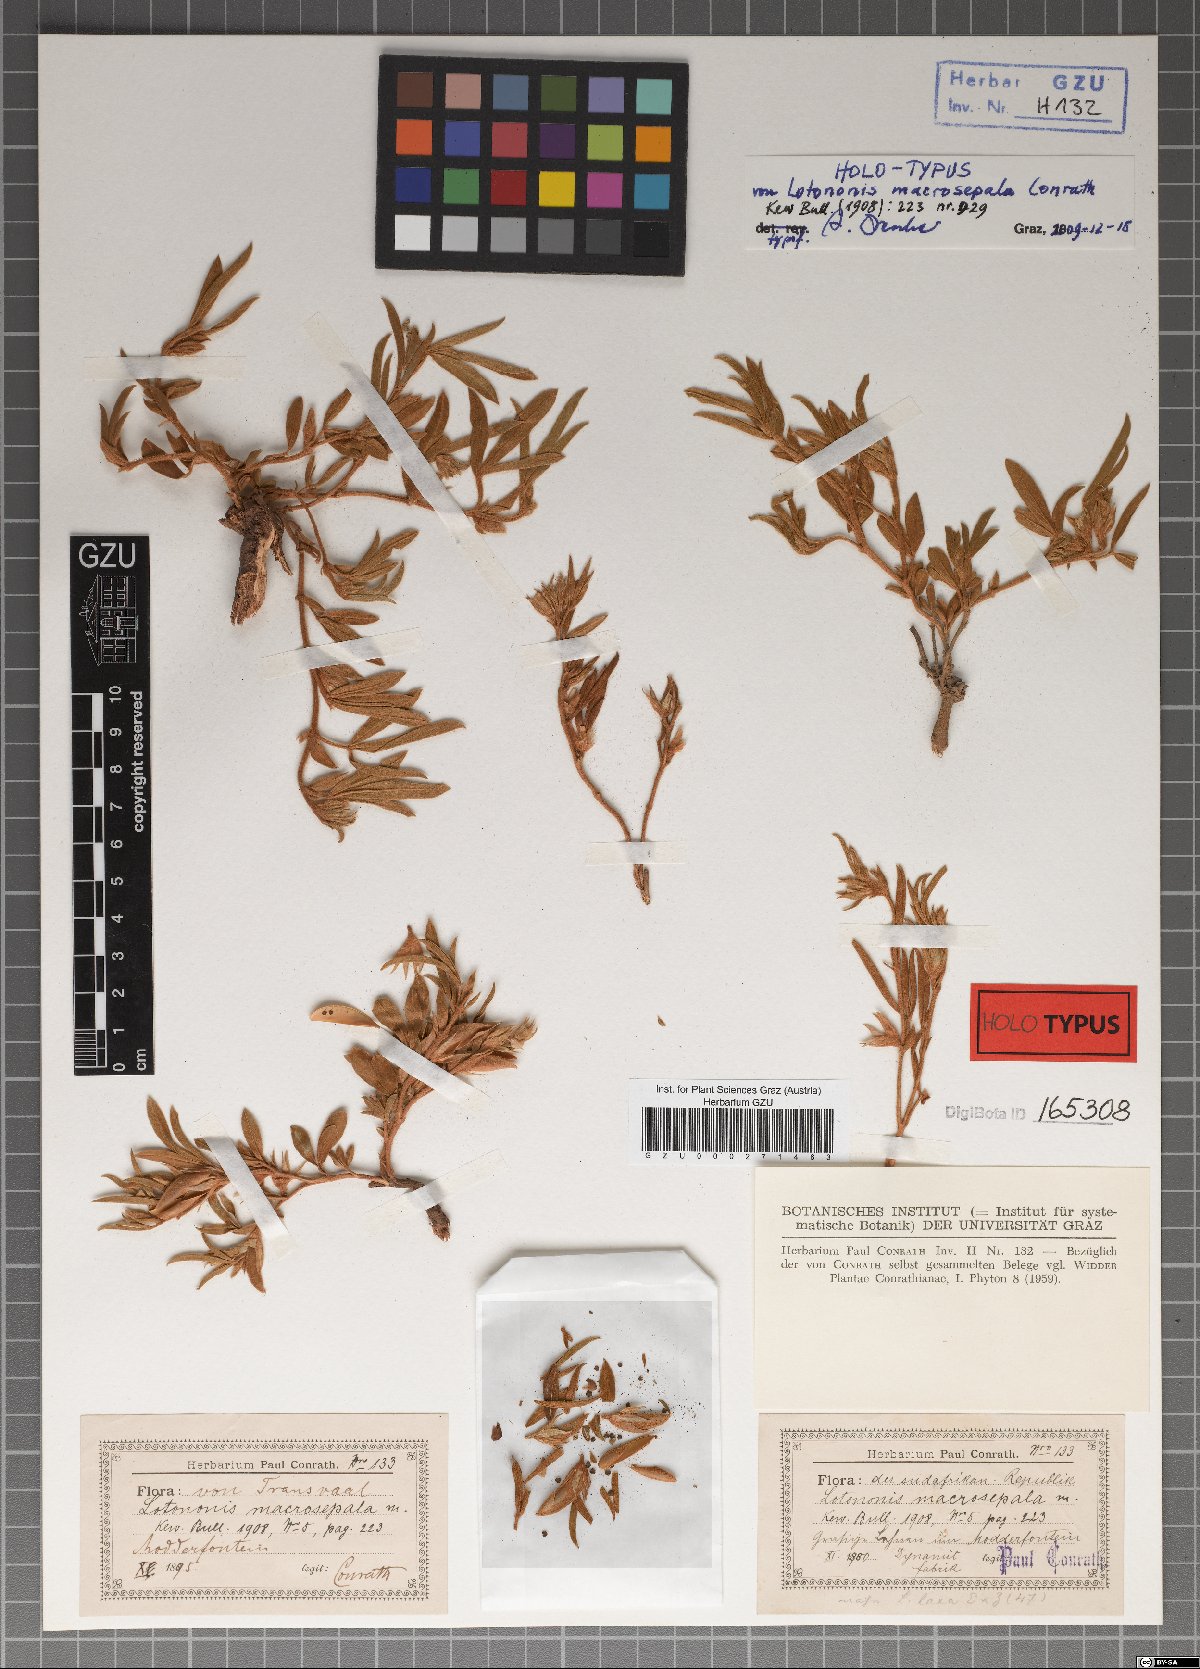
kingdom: Plantae
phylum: Tracheophyta
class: Magnoliopsida
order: Fabales
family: Fabaceae
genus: Lotononis
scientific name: Lotononis macrosepala
